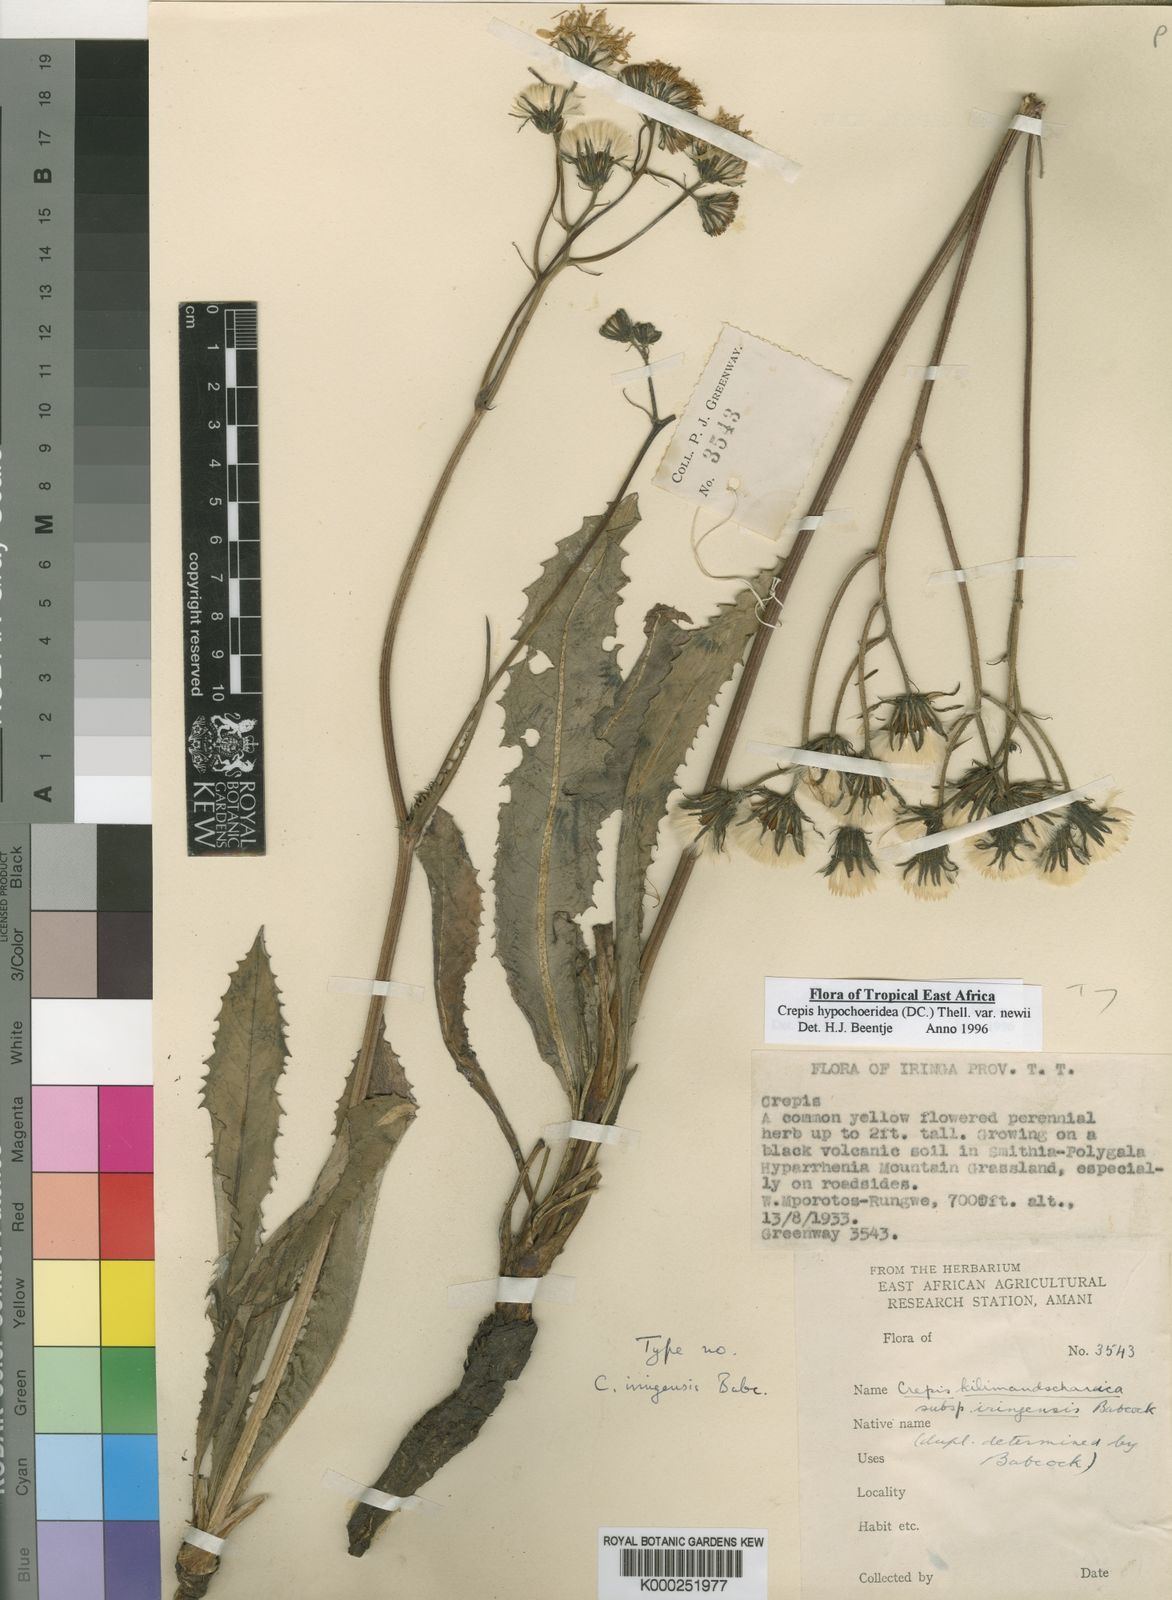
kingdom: Plantae
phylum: Tracheophyta
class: Magnoliopsida
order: Asterales
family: Asteraceae
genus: Crepis
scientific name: Crepis hypochoeridea
